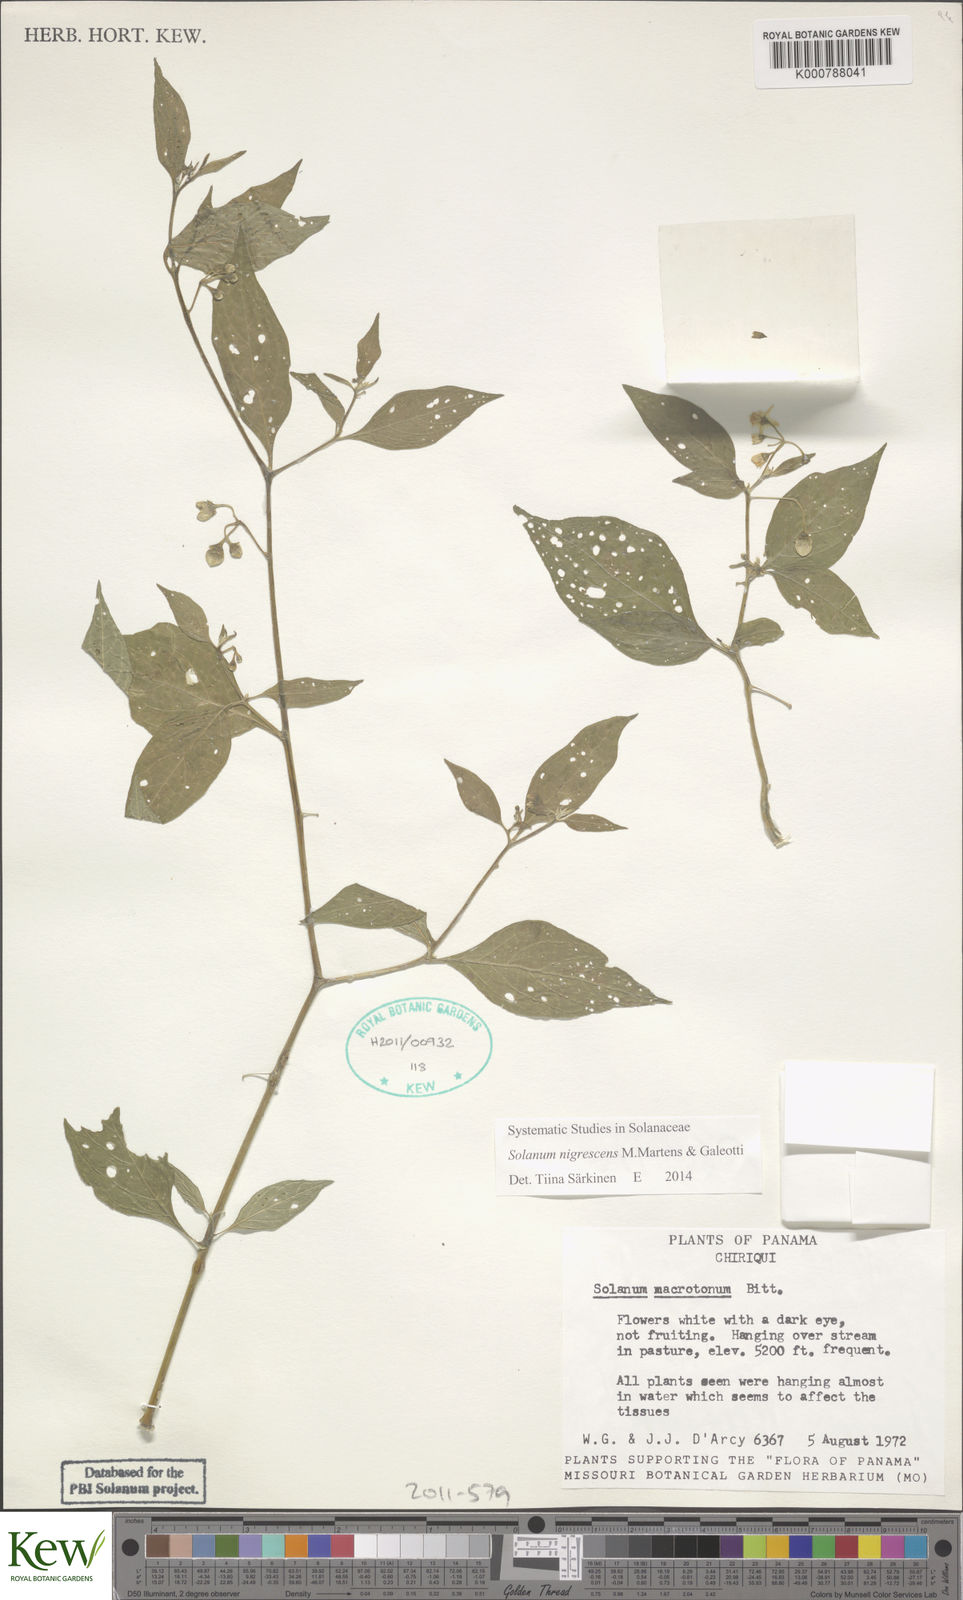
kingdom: Plantae
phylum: Tracheophyta
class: Magnoliopsida
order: Solanales
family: Solanaceae
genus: Solanum
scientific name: Solanum macrotonum
